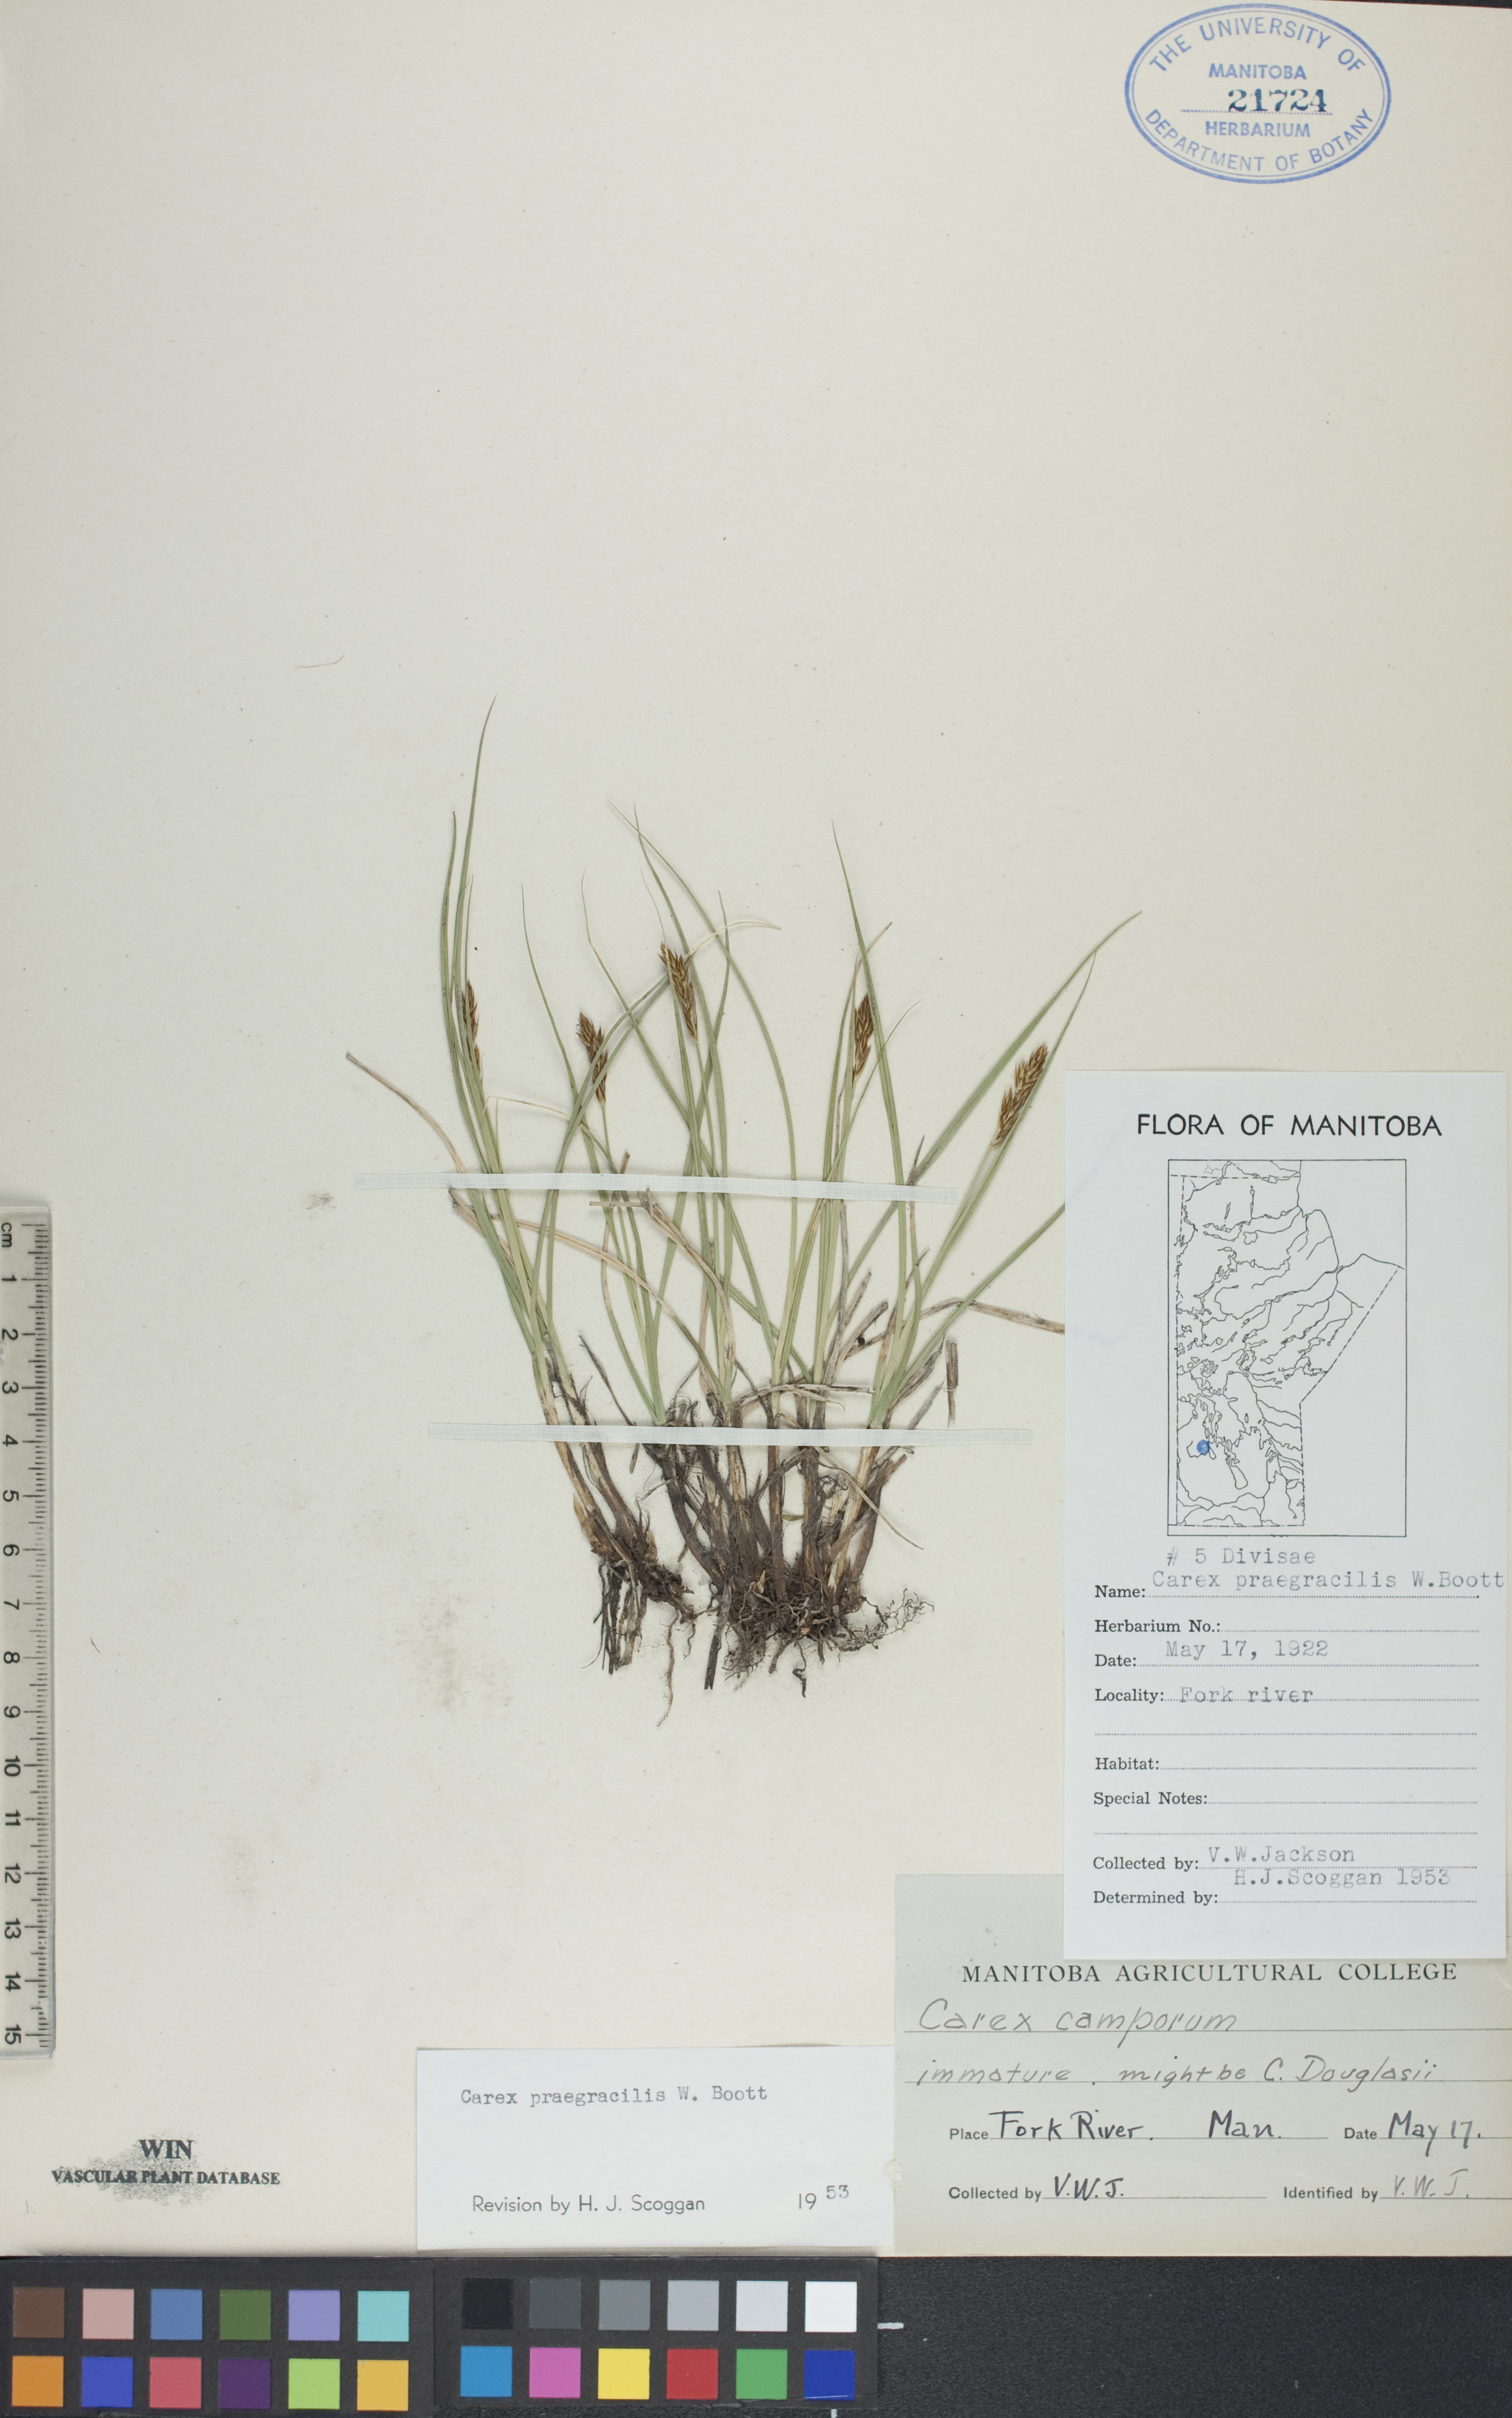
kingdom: Plantae
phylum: Tracheophyta
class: Liliopsida
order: Poales
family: Cyperaceae
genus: Carex
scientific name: Carex praegracilis
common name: Black creeper sedge
